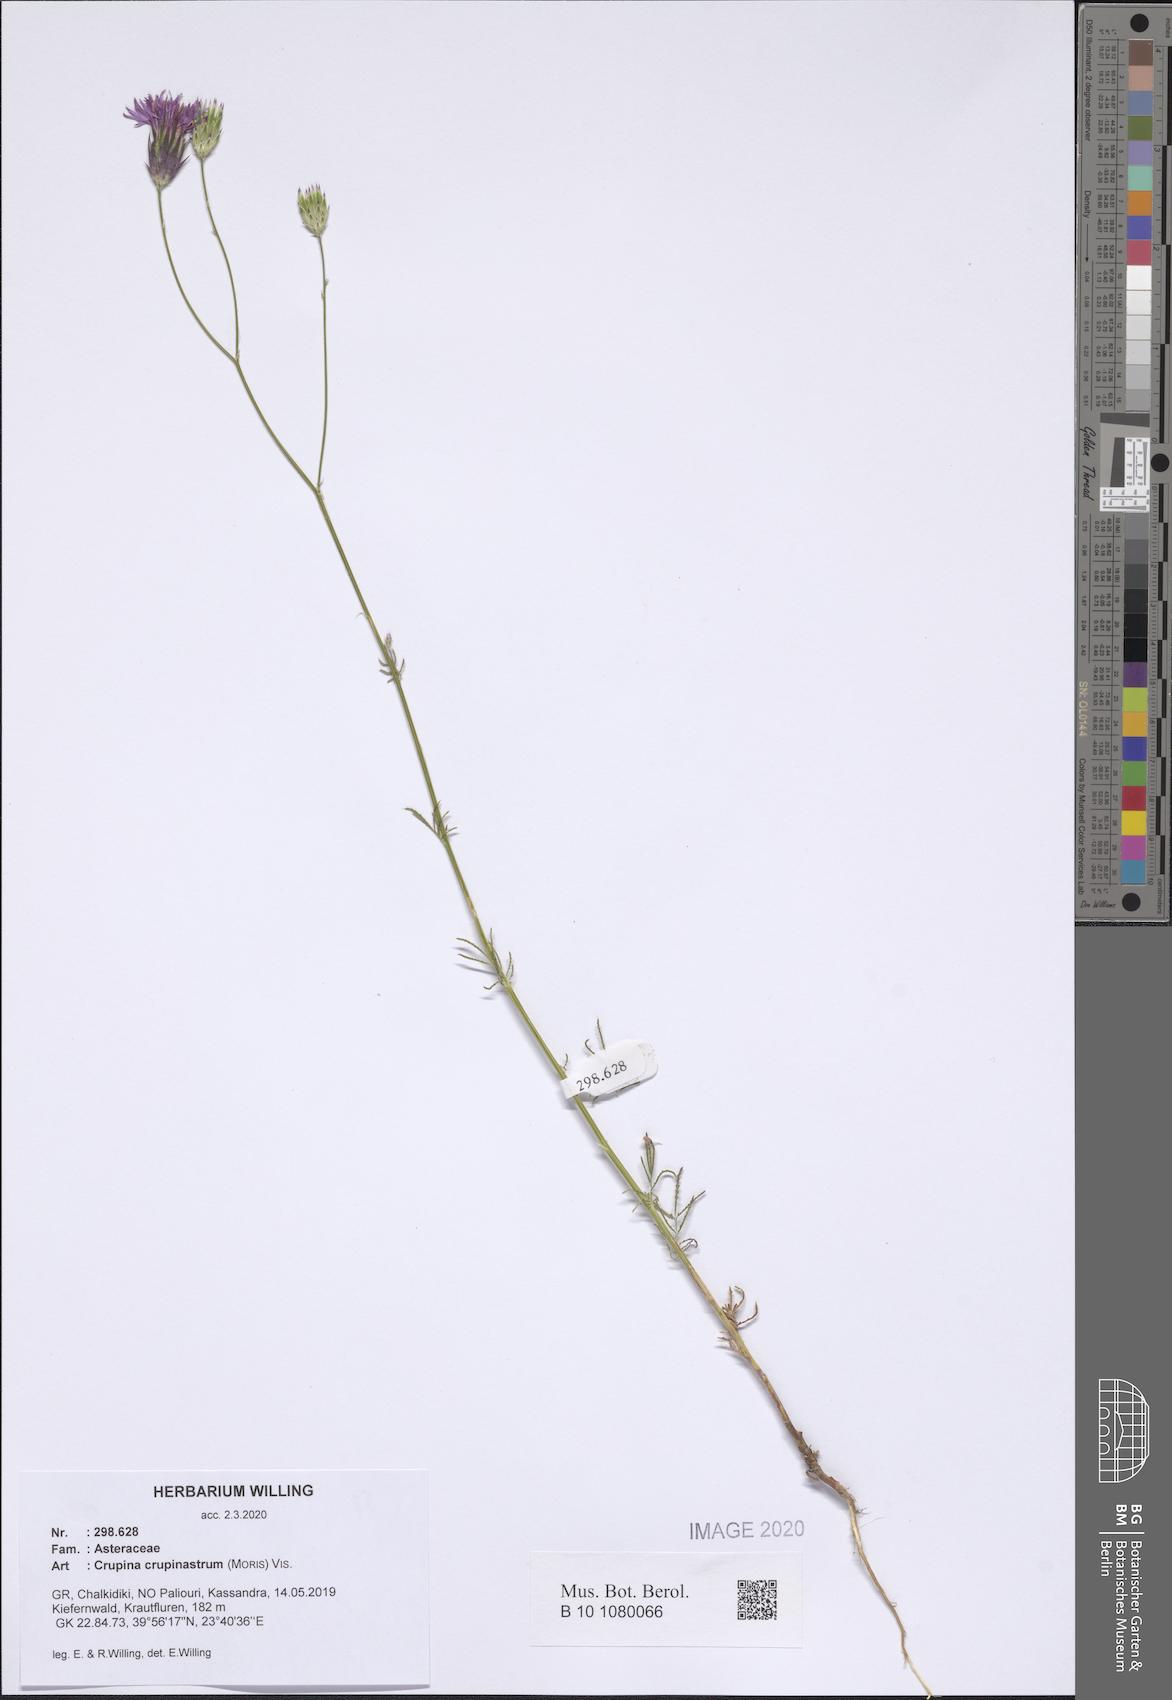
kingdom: Plantae
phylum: Tracheophyta
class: Magnoliopsida
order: Asterales
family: Asteraceae
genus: Crupina
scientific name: Crupina crupinastrum
